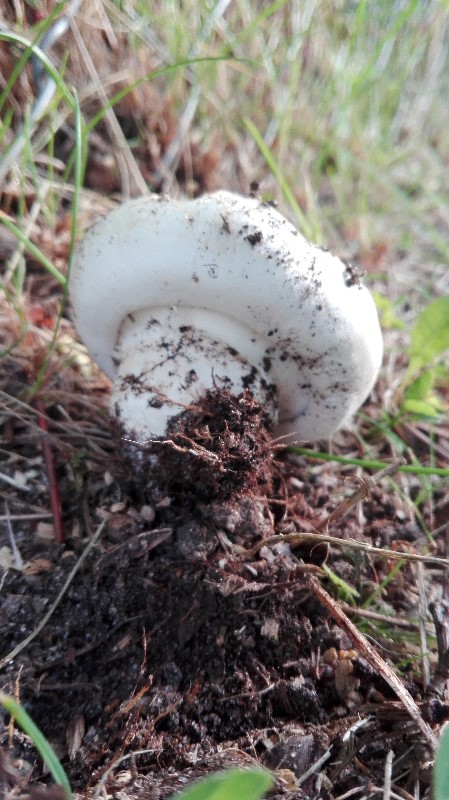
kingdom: Fungi
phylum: Basidiomycota
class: Agaricomycetes
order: Agaricales
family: Agaricaceae
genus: Agaricus
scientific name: Agaricus bitorquis
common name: vej-champignon
